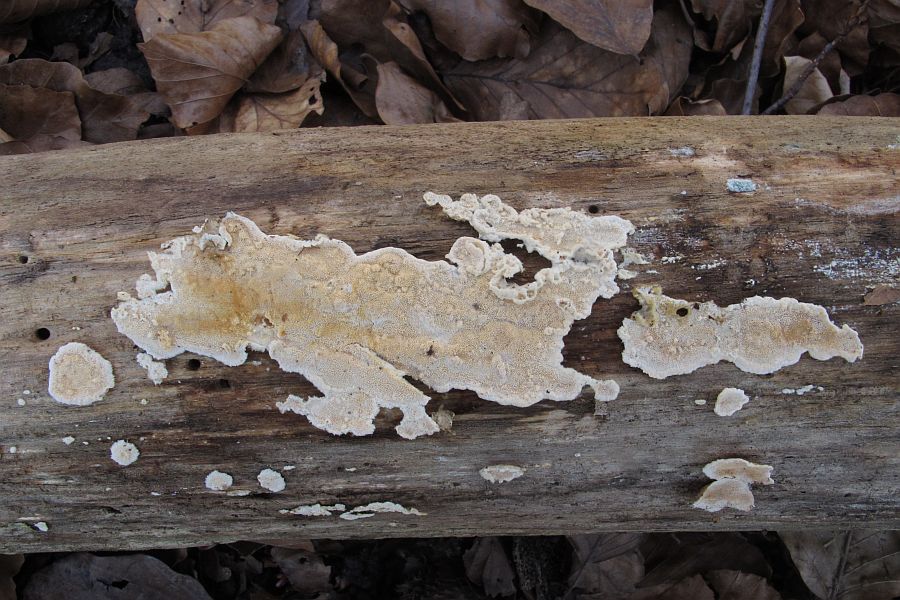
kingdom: Fungi
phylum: Basidiomycota
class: Agaricomycetes
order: Polyporales
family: Steccherinaceae
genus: Junghuhnia
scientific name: Junghuhnia nitida
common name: almindelig skønporesvamp
